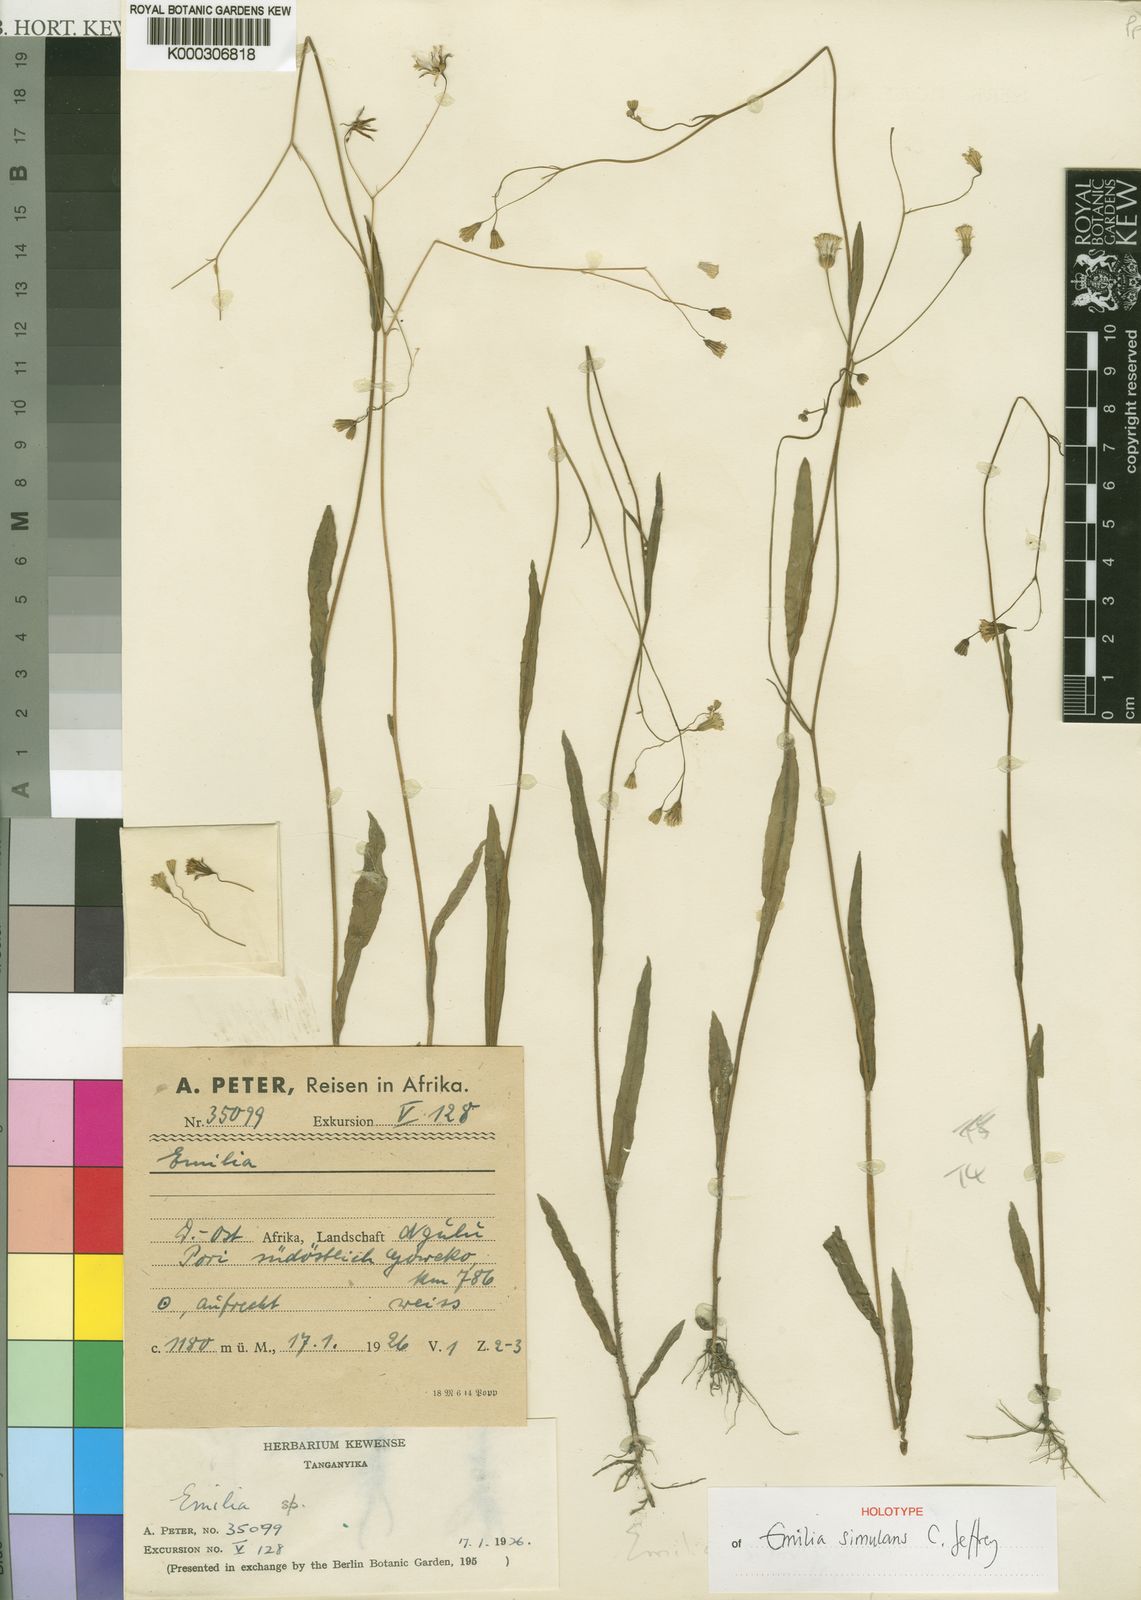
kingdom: Plantae
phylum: Tracheophyta
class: Magnoliopsida
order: Asterales
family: Asteraceae
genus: Emilia
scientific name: Emilia simulans
